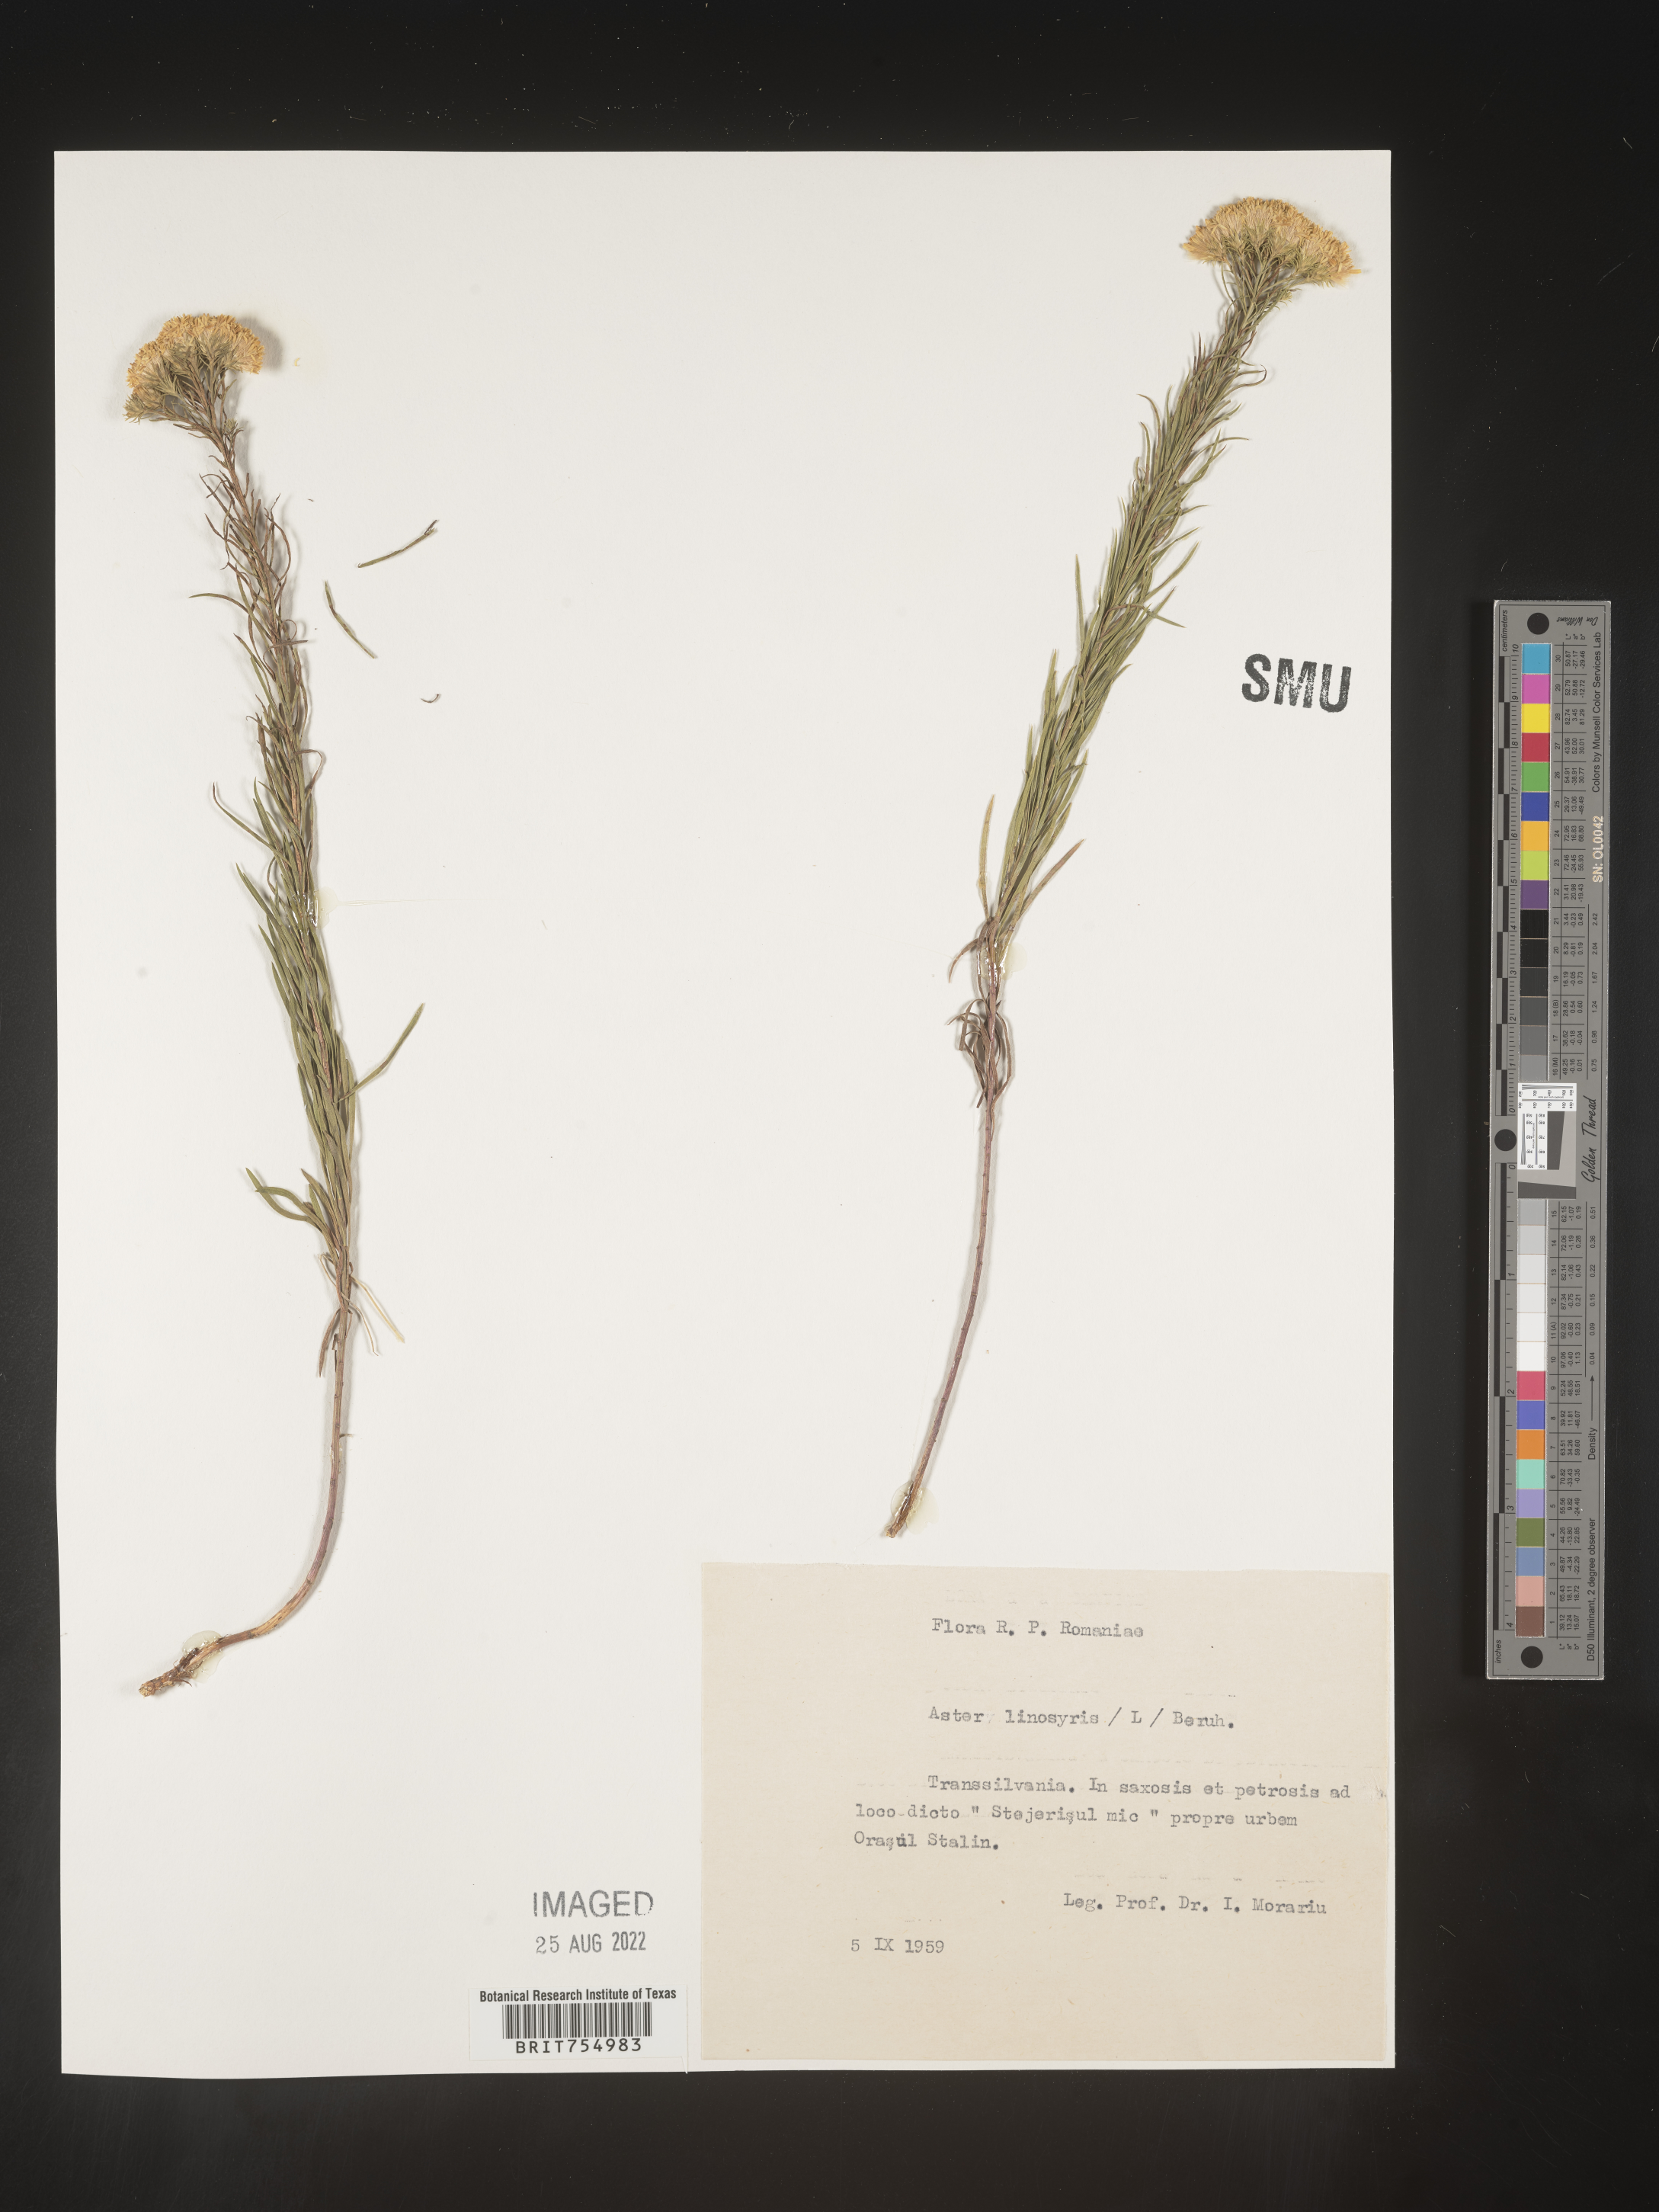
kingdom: Plantae
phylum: Tracheophyta
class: Magnoliopsida
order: Asterales
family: Asteraceae
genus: Symphyotrichum
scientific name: Symphyotrichum
